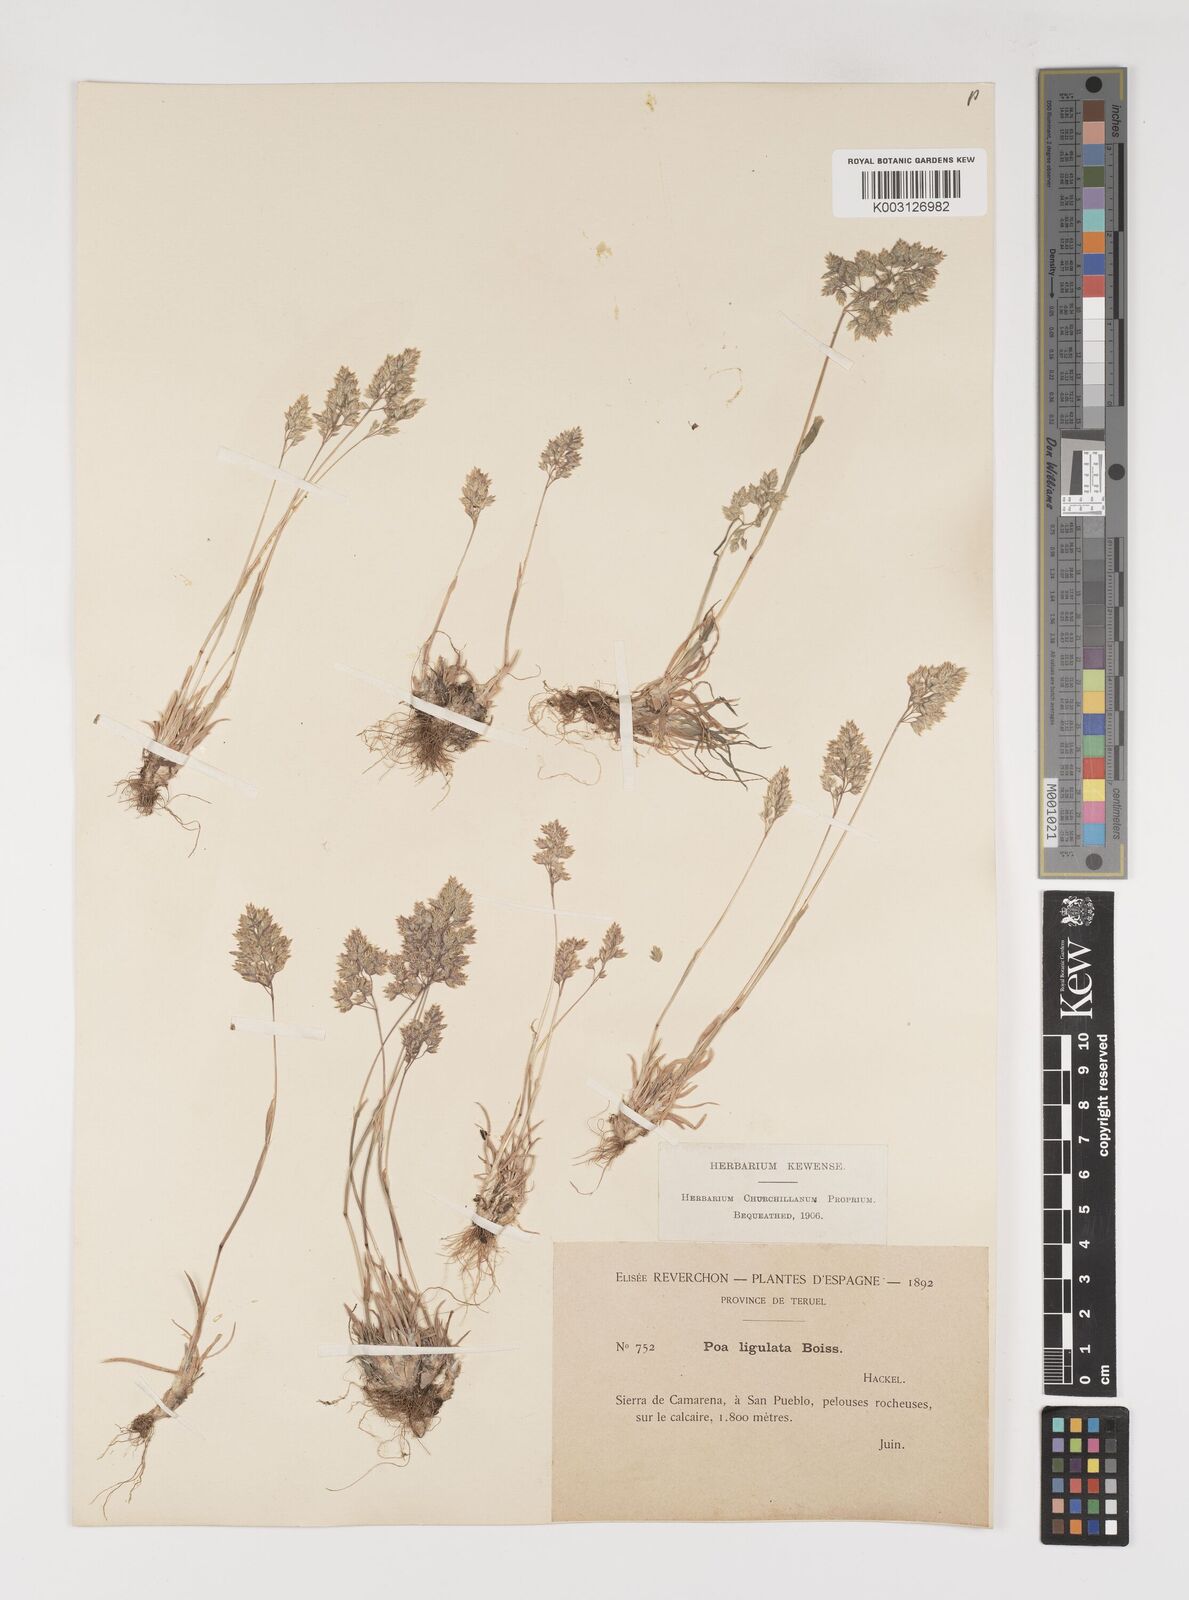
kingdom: Plantae
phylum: Tracheophyta
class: Liliopsida
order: Poales
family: Poaceae
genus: Poa
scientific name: Poa ligulata
